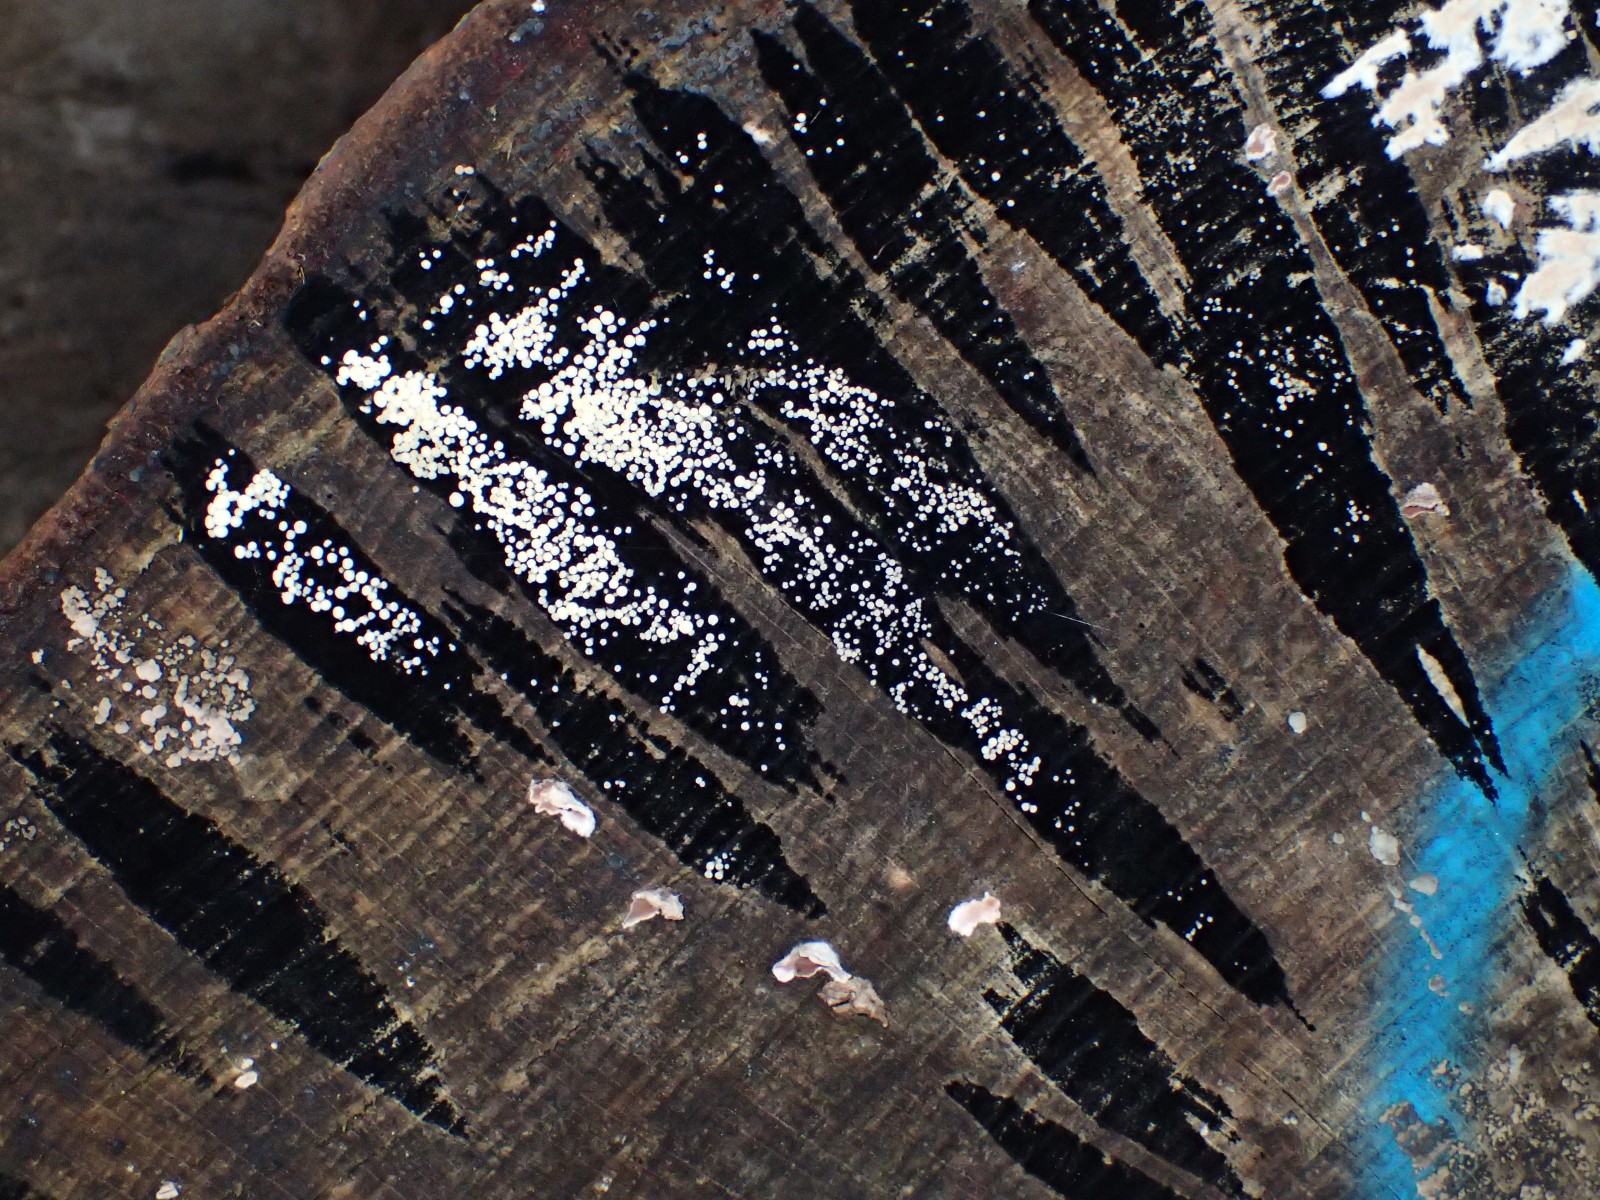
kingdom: Fungi
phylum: Ascomycota
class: Leotiomycetes
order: Helotiales
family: Helotiaceae
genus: Bispora
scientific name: Bispora pallescens
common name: måtte-snitskive
